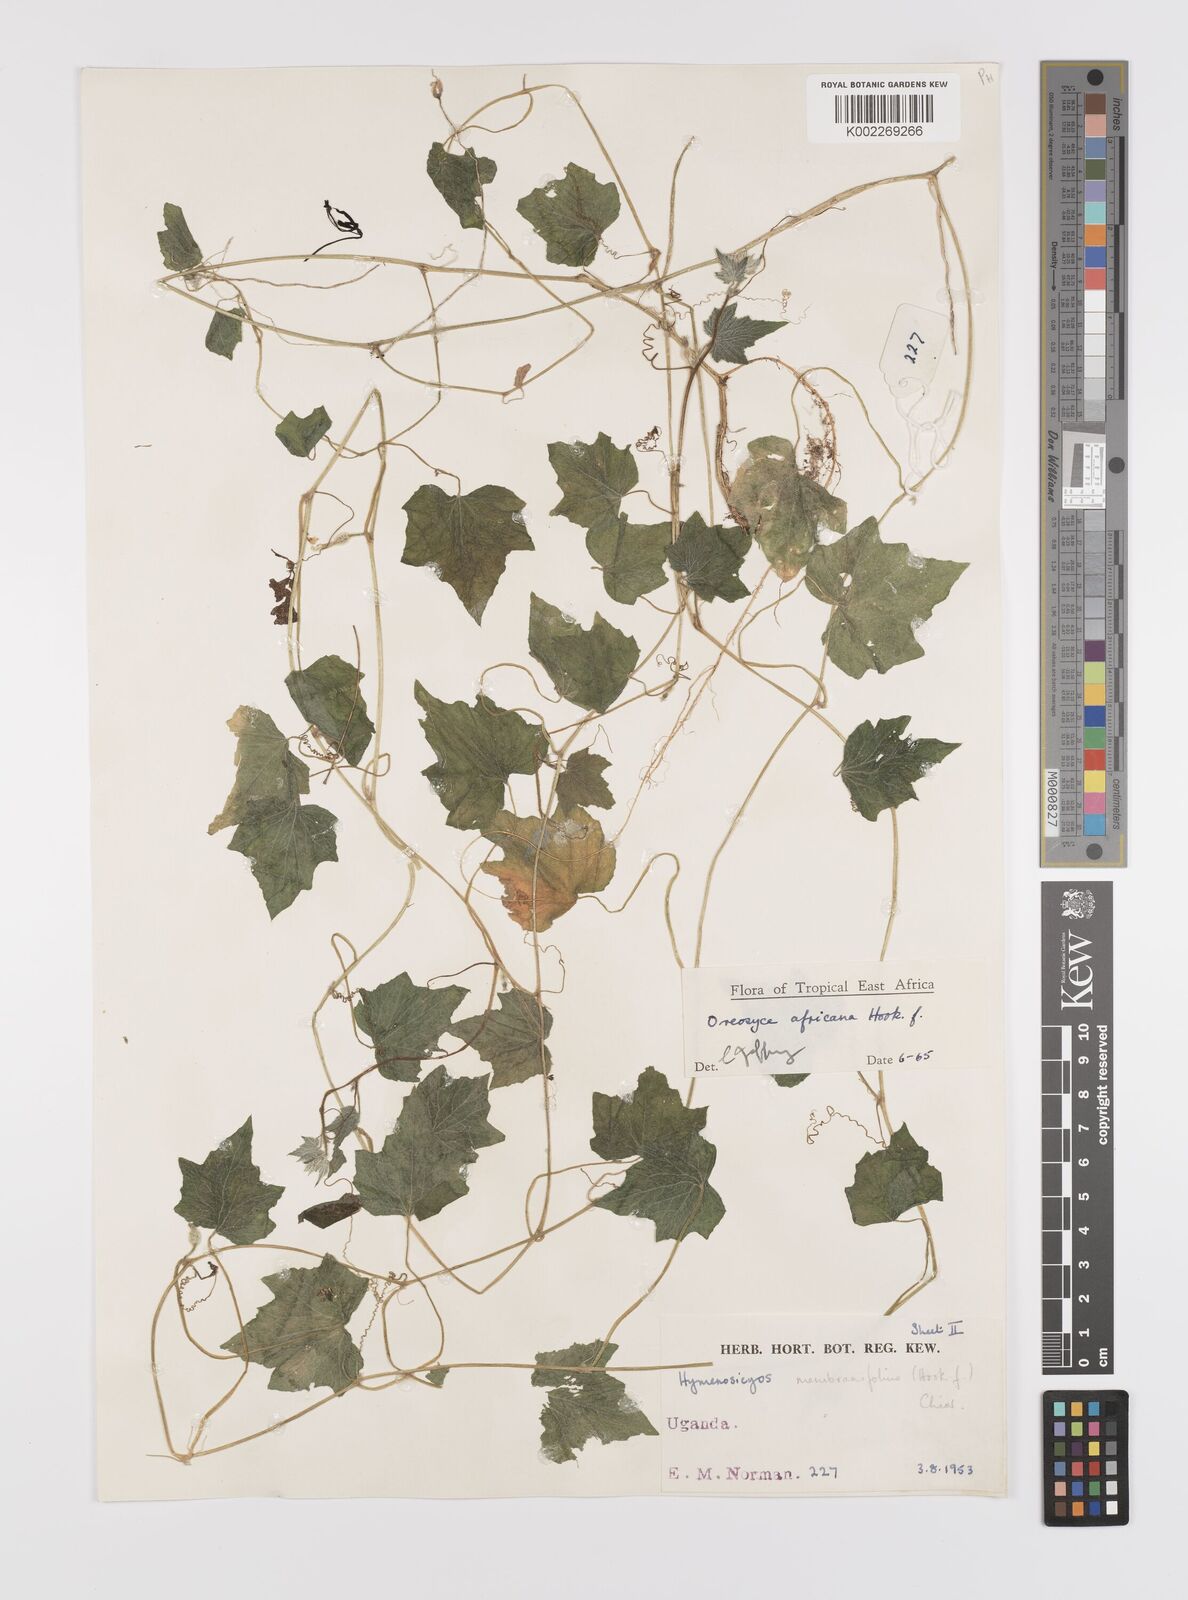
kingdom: Plantae
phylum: Tracheophyta
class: Magnoliopsida
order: Cucurbitales
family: Cucurbitaceae
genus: Cucumis
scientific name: Cucumis oreosyce
